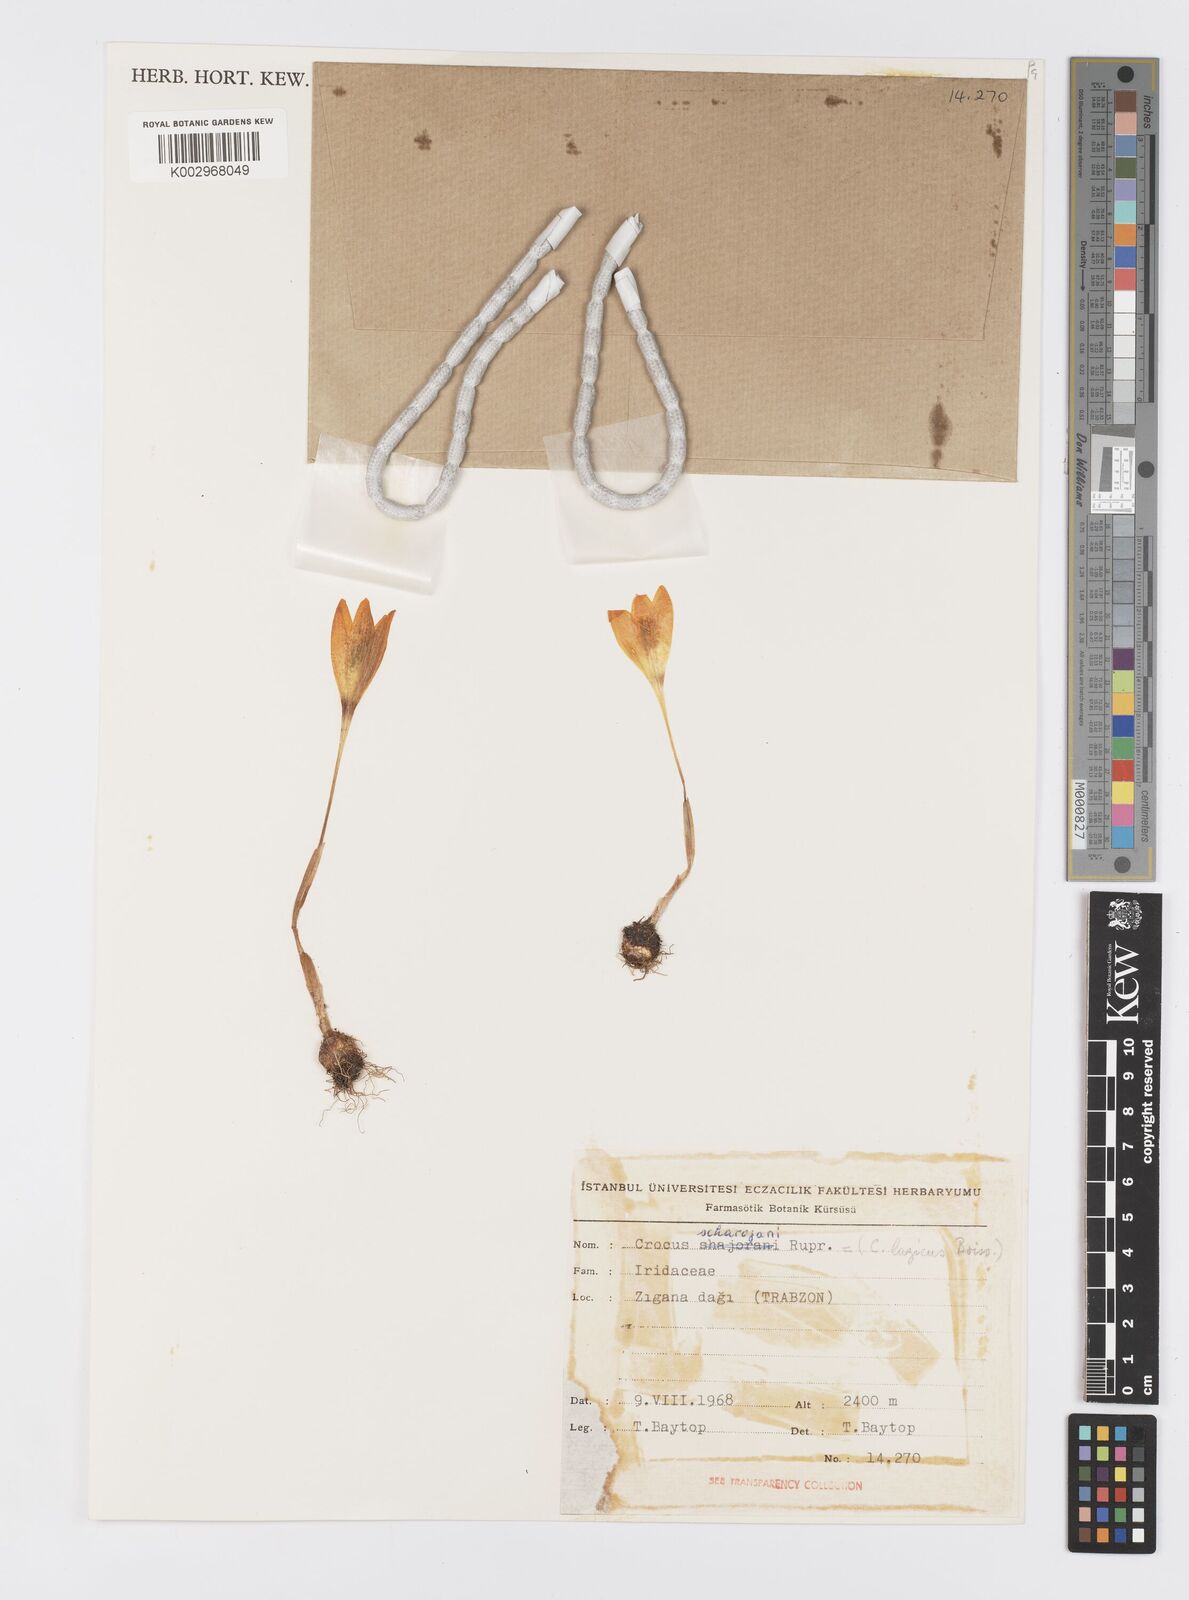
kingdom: Plantae
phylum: Tracheophyta
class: Liliopsida
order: Asparagales
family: Iridaceae
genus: Crocus
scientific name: Crocus lazicus
